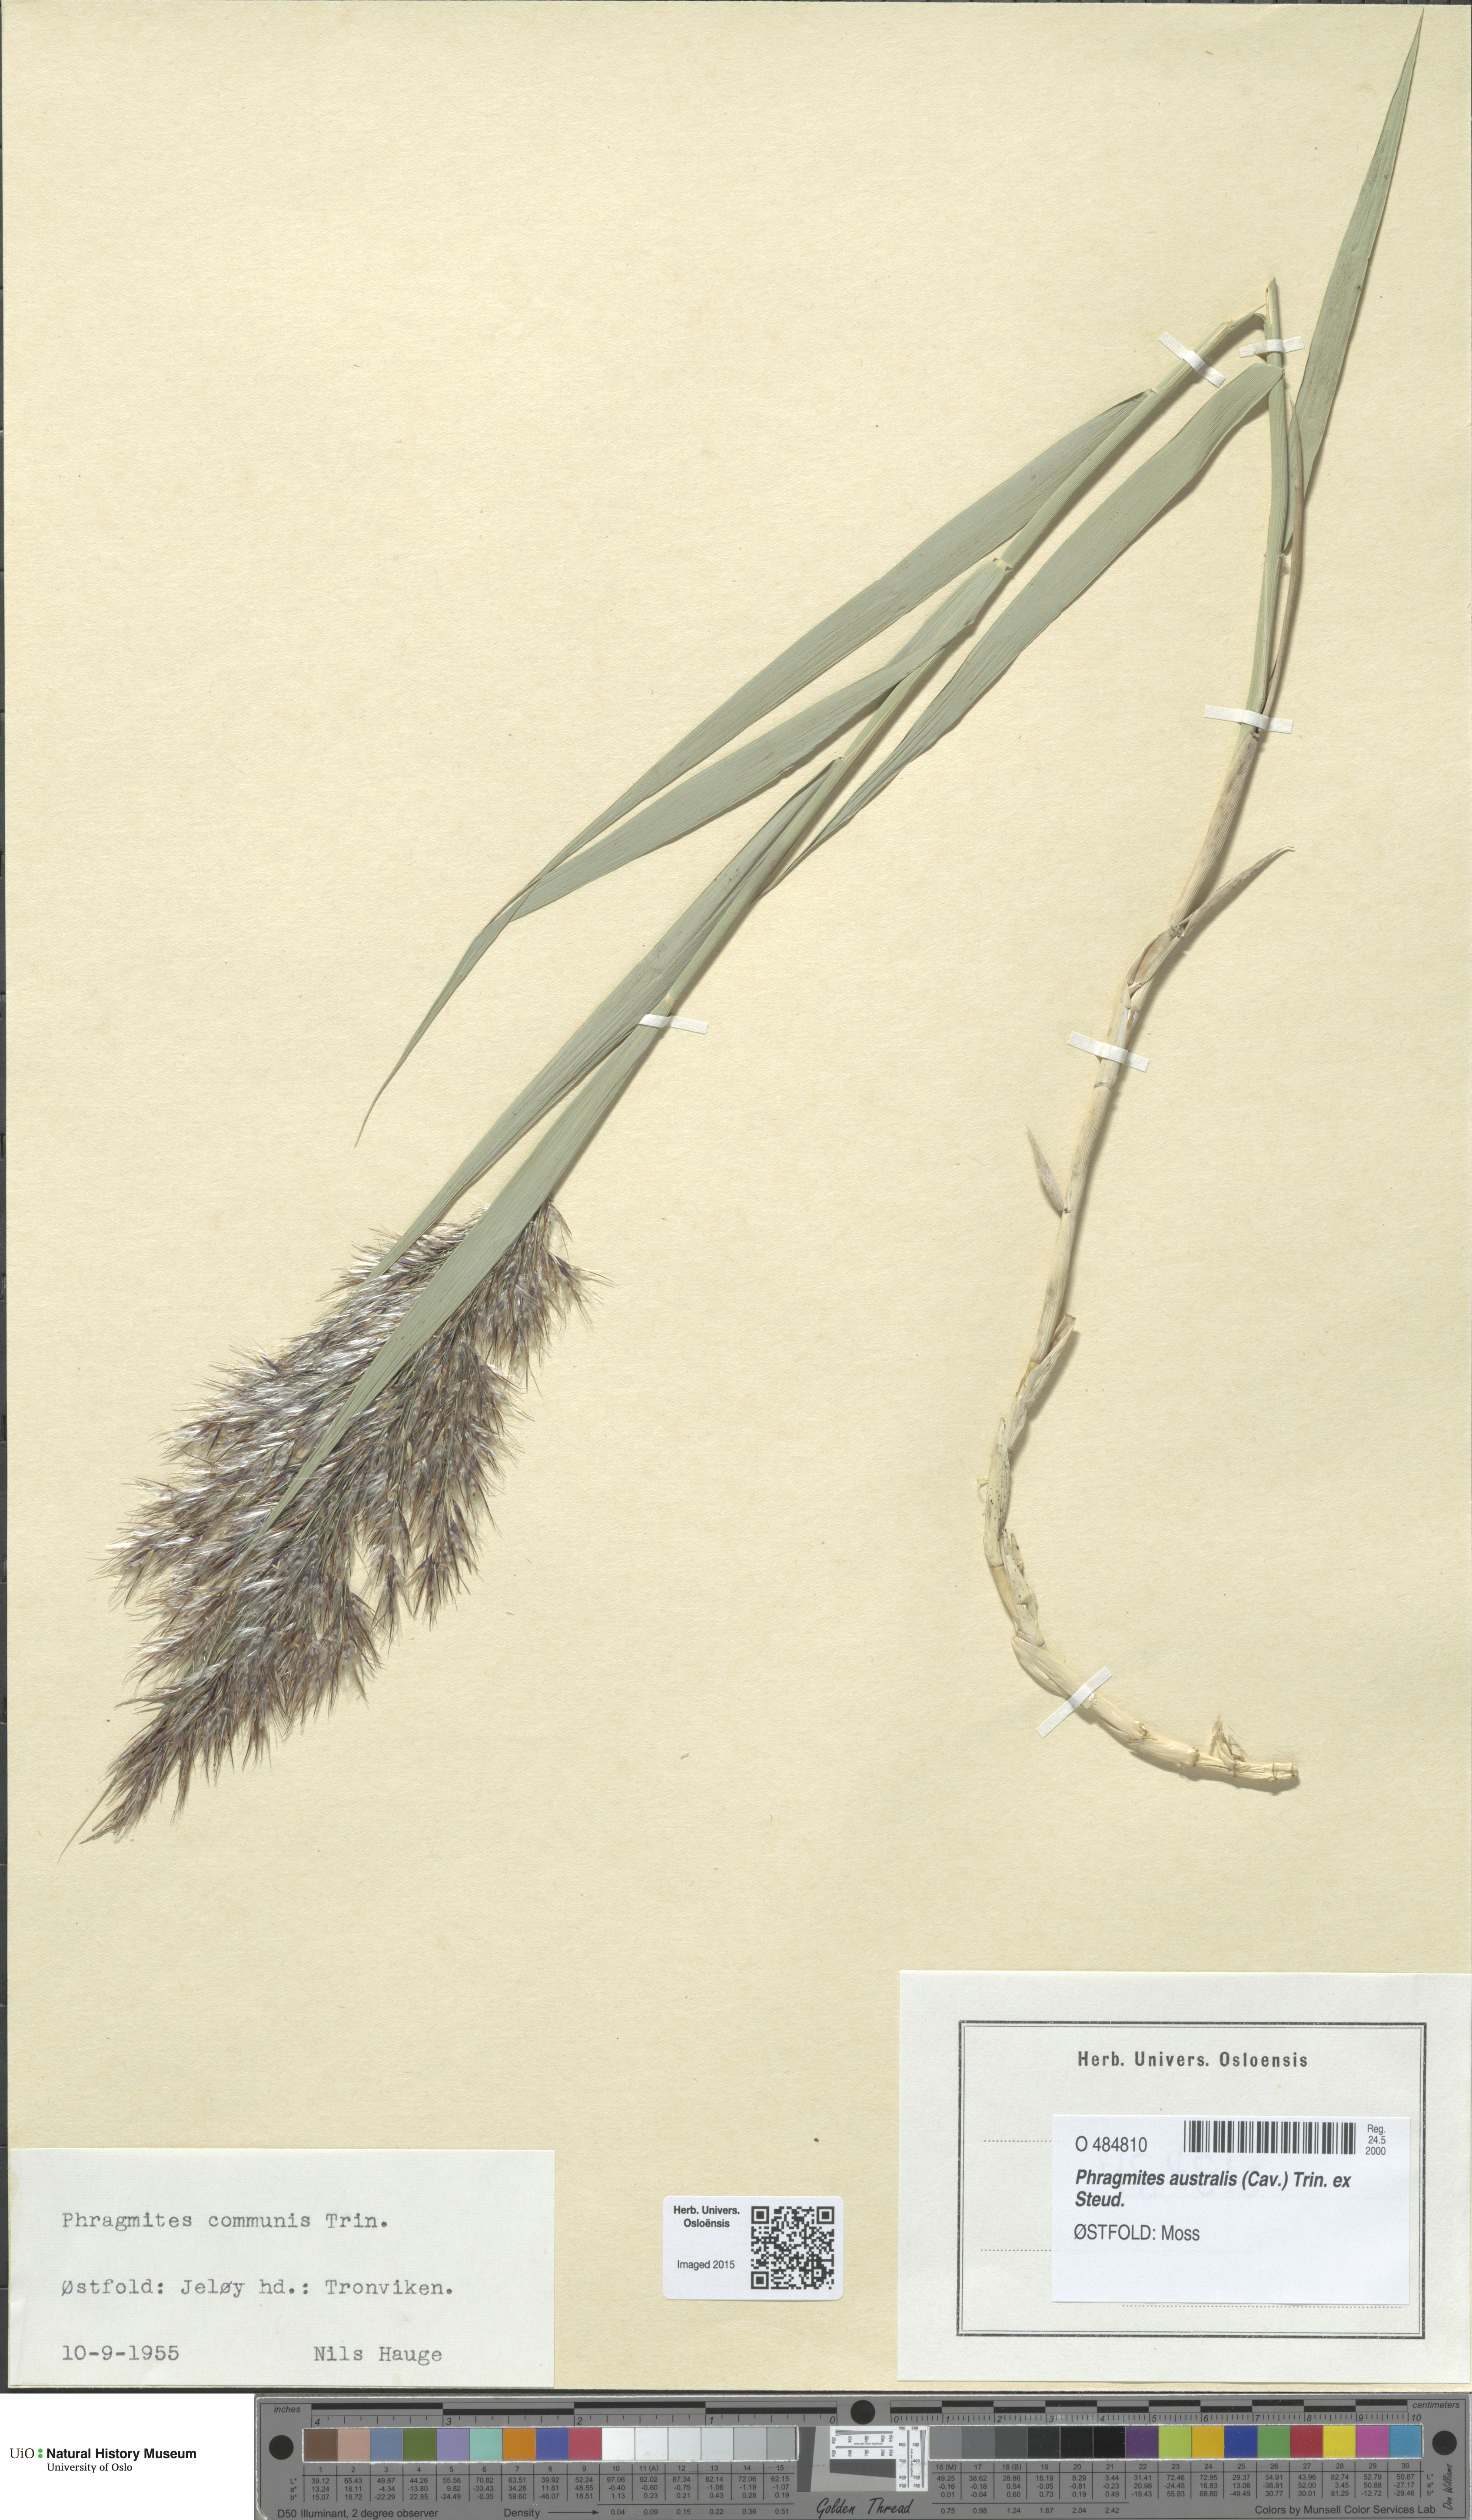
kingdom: Plantae
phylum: Tracheophyta
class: Liliopsida
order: Poales
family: Poaceae
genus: Phragmites
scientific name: Phragmites australis
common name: Common reed
